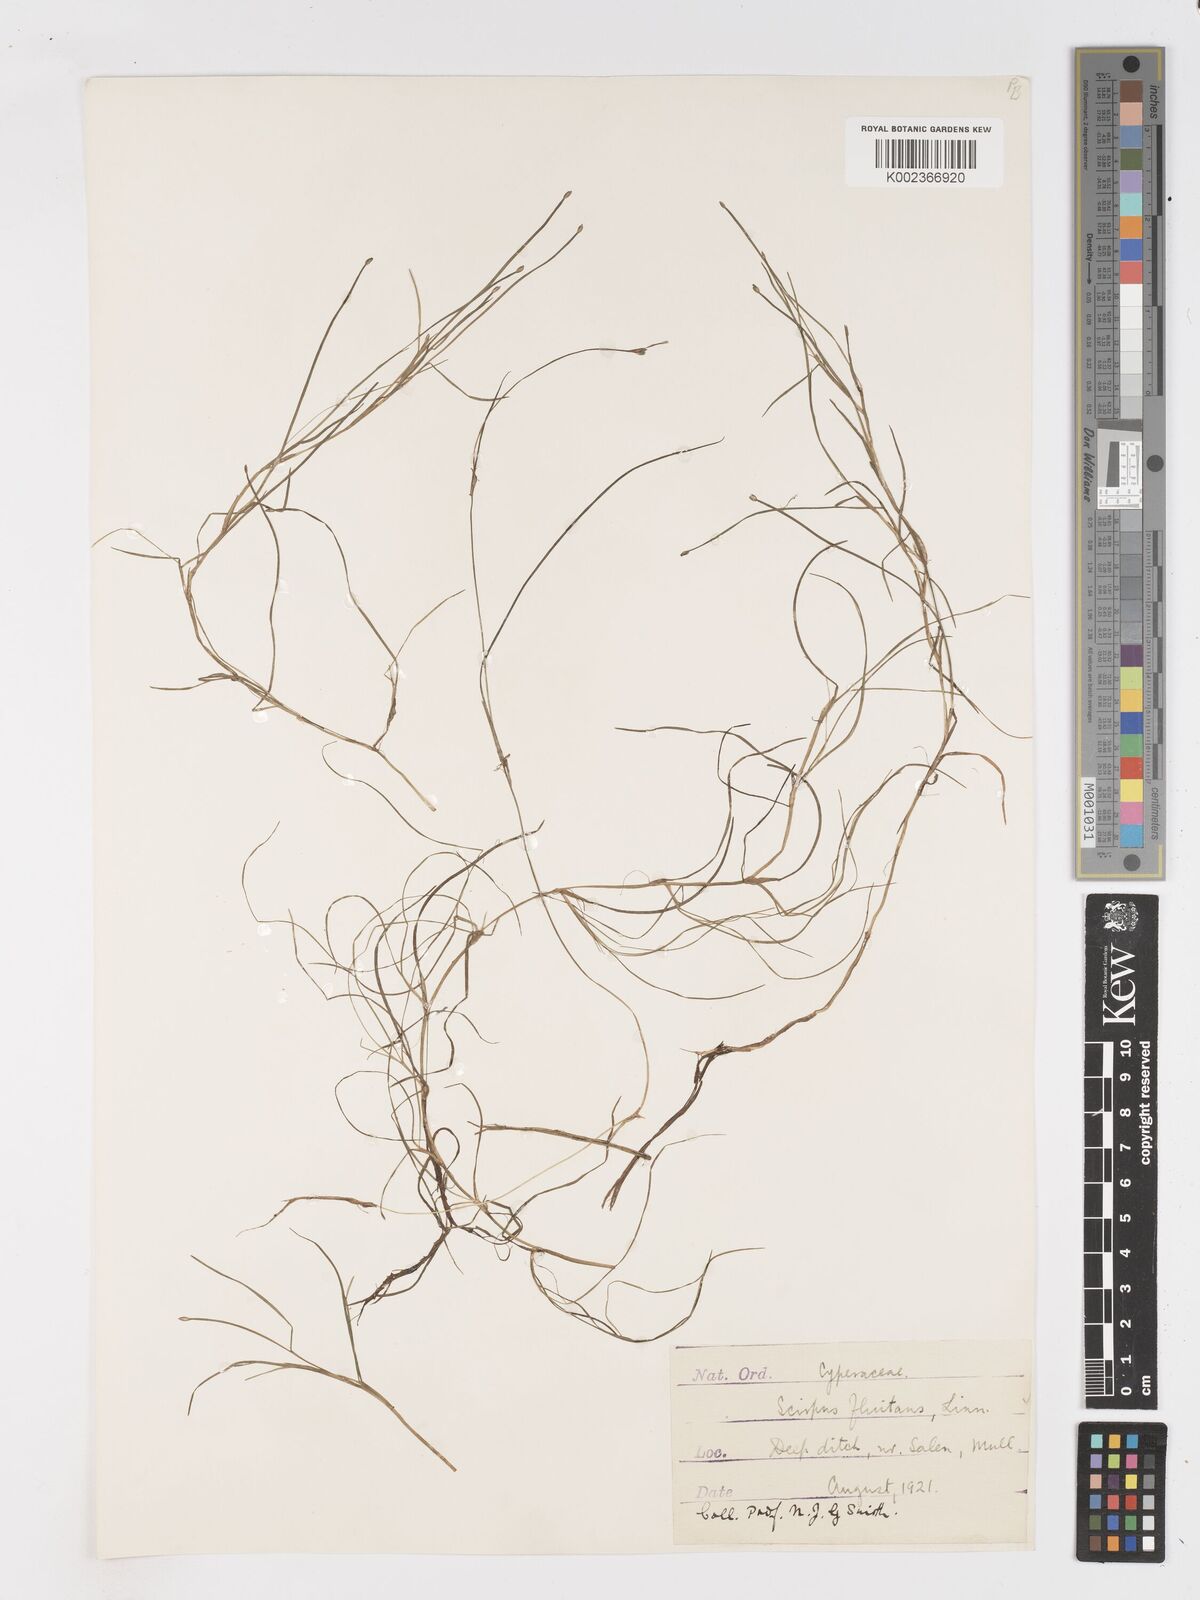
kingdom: Plantae
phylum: Tracheophyta
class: Liliopsida
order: Poales
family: Cyperaceae
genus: Isolepis
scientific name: Isolepis fluitans
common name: Floating club-rush
